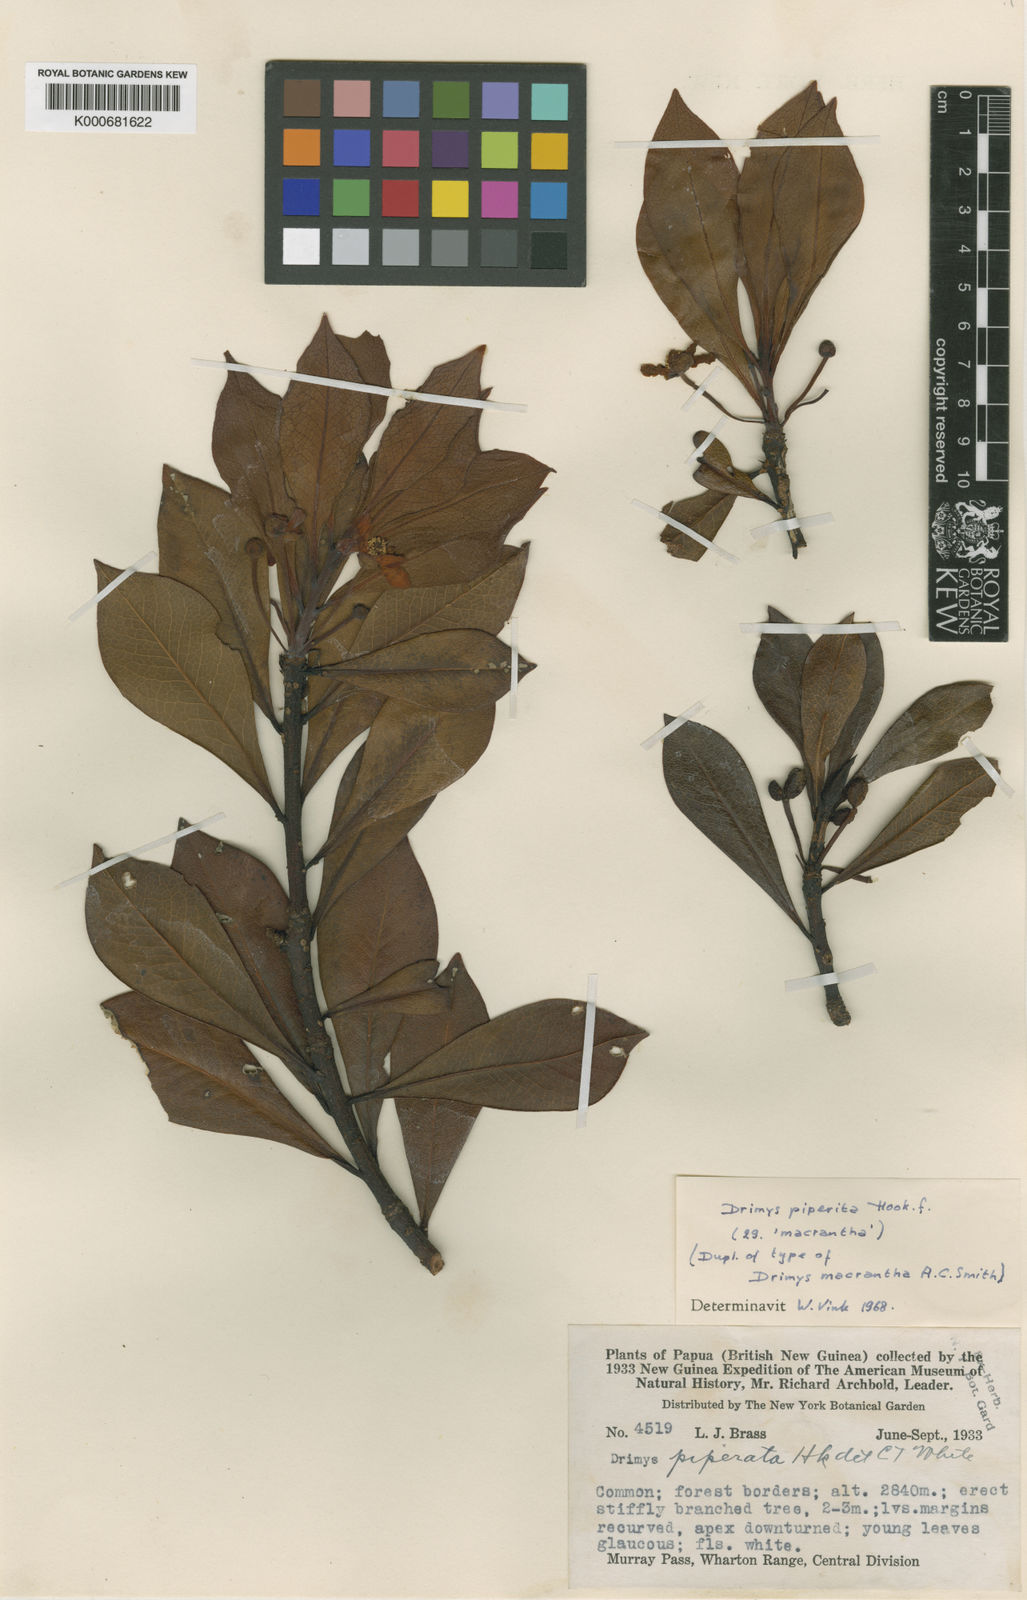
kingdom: Plantae
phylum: Tracheophyta
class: Magnoliopsida
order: Canellales
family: Winteraceae
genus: Drimys
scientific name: Drimys piperita
